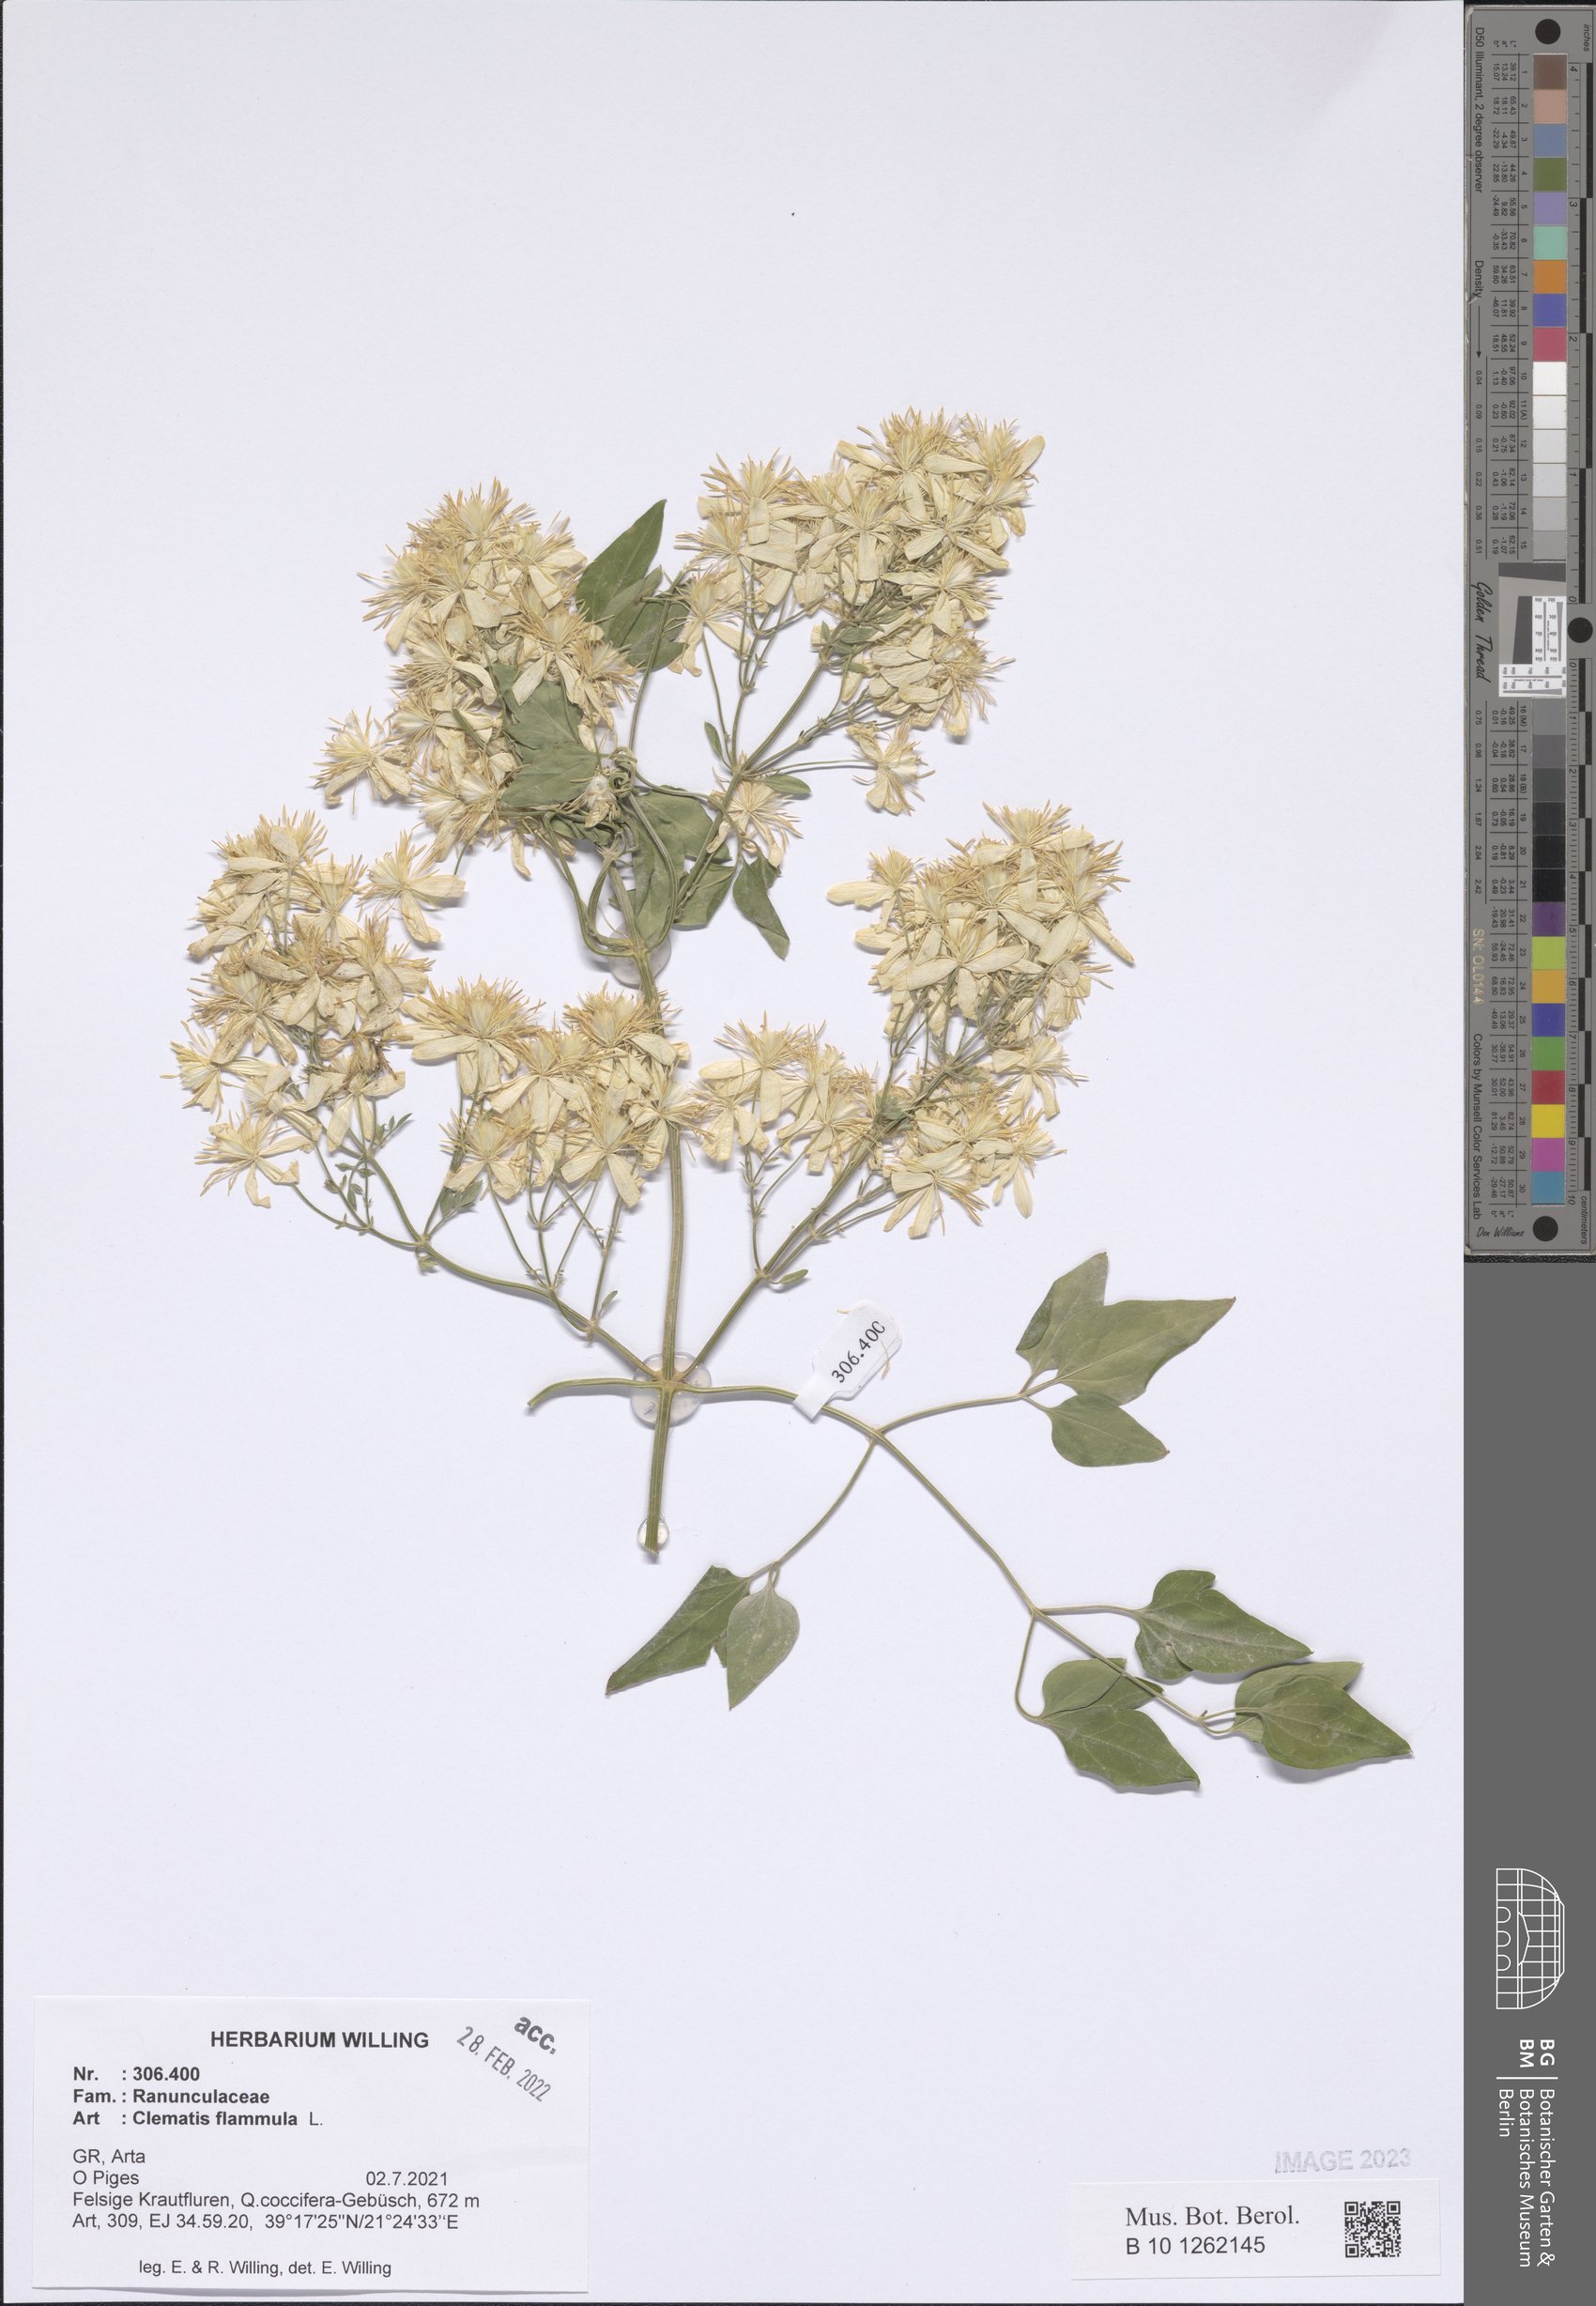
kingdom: Plantae
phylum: Tracheophyta
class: Magnoliopsida
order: Ranunculales
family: Ranunculaceae
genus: Clematis
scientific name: Clematis flammula
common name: Virgin's-bower
